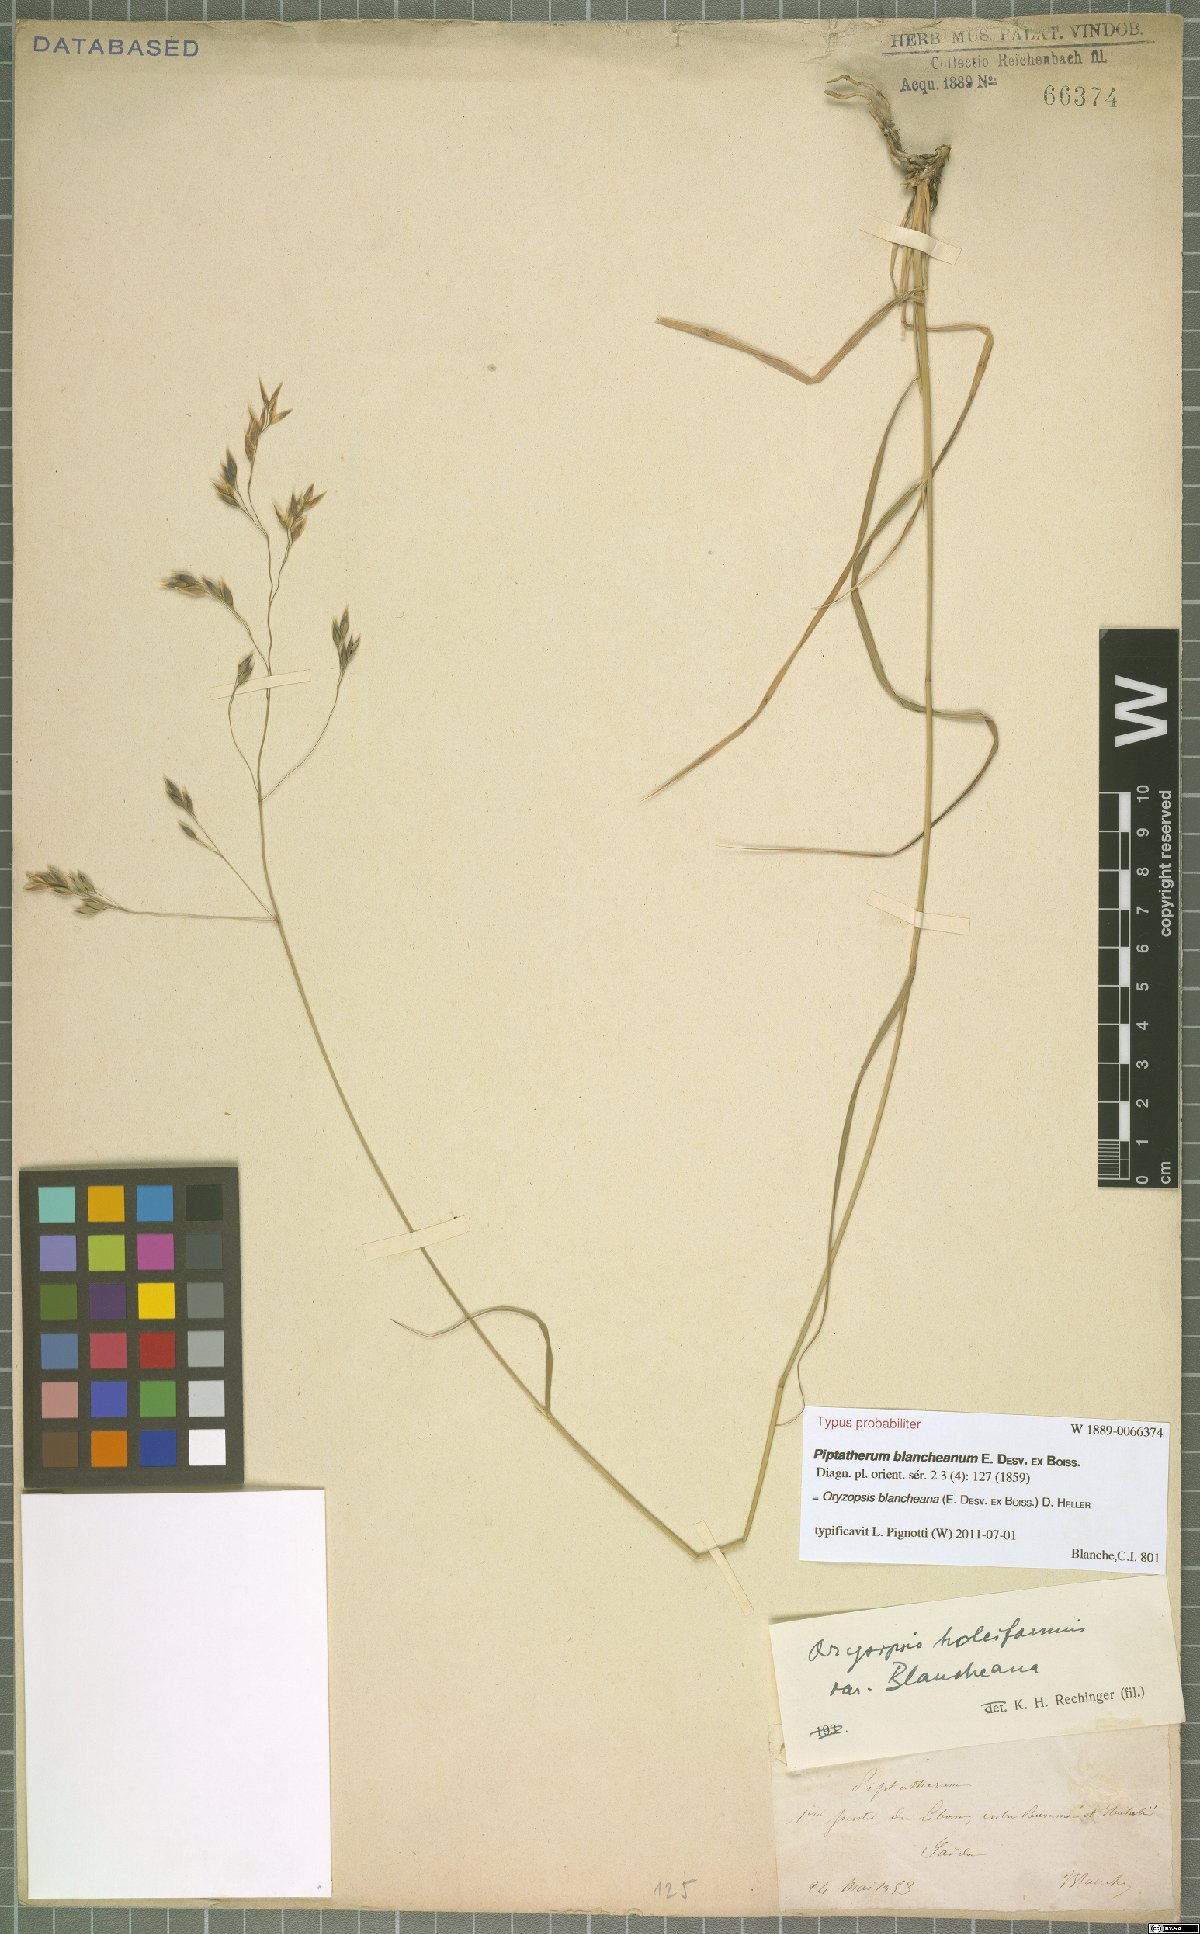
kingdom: Plantae
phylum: Tracheophyta
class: Liliopsida
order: Poales
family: Poaceae
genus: Piptatherum
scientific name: Piptatherum blancheanum
